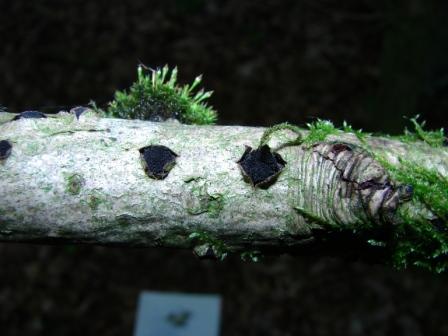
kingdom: Fungi
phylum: Ascomycota
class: Sordariomycetes
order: Xylariales
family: Diatrypaceae
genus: Eutypella
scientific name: Eutypella sorbi
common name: rønne-kulskorpe
